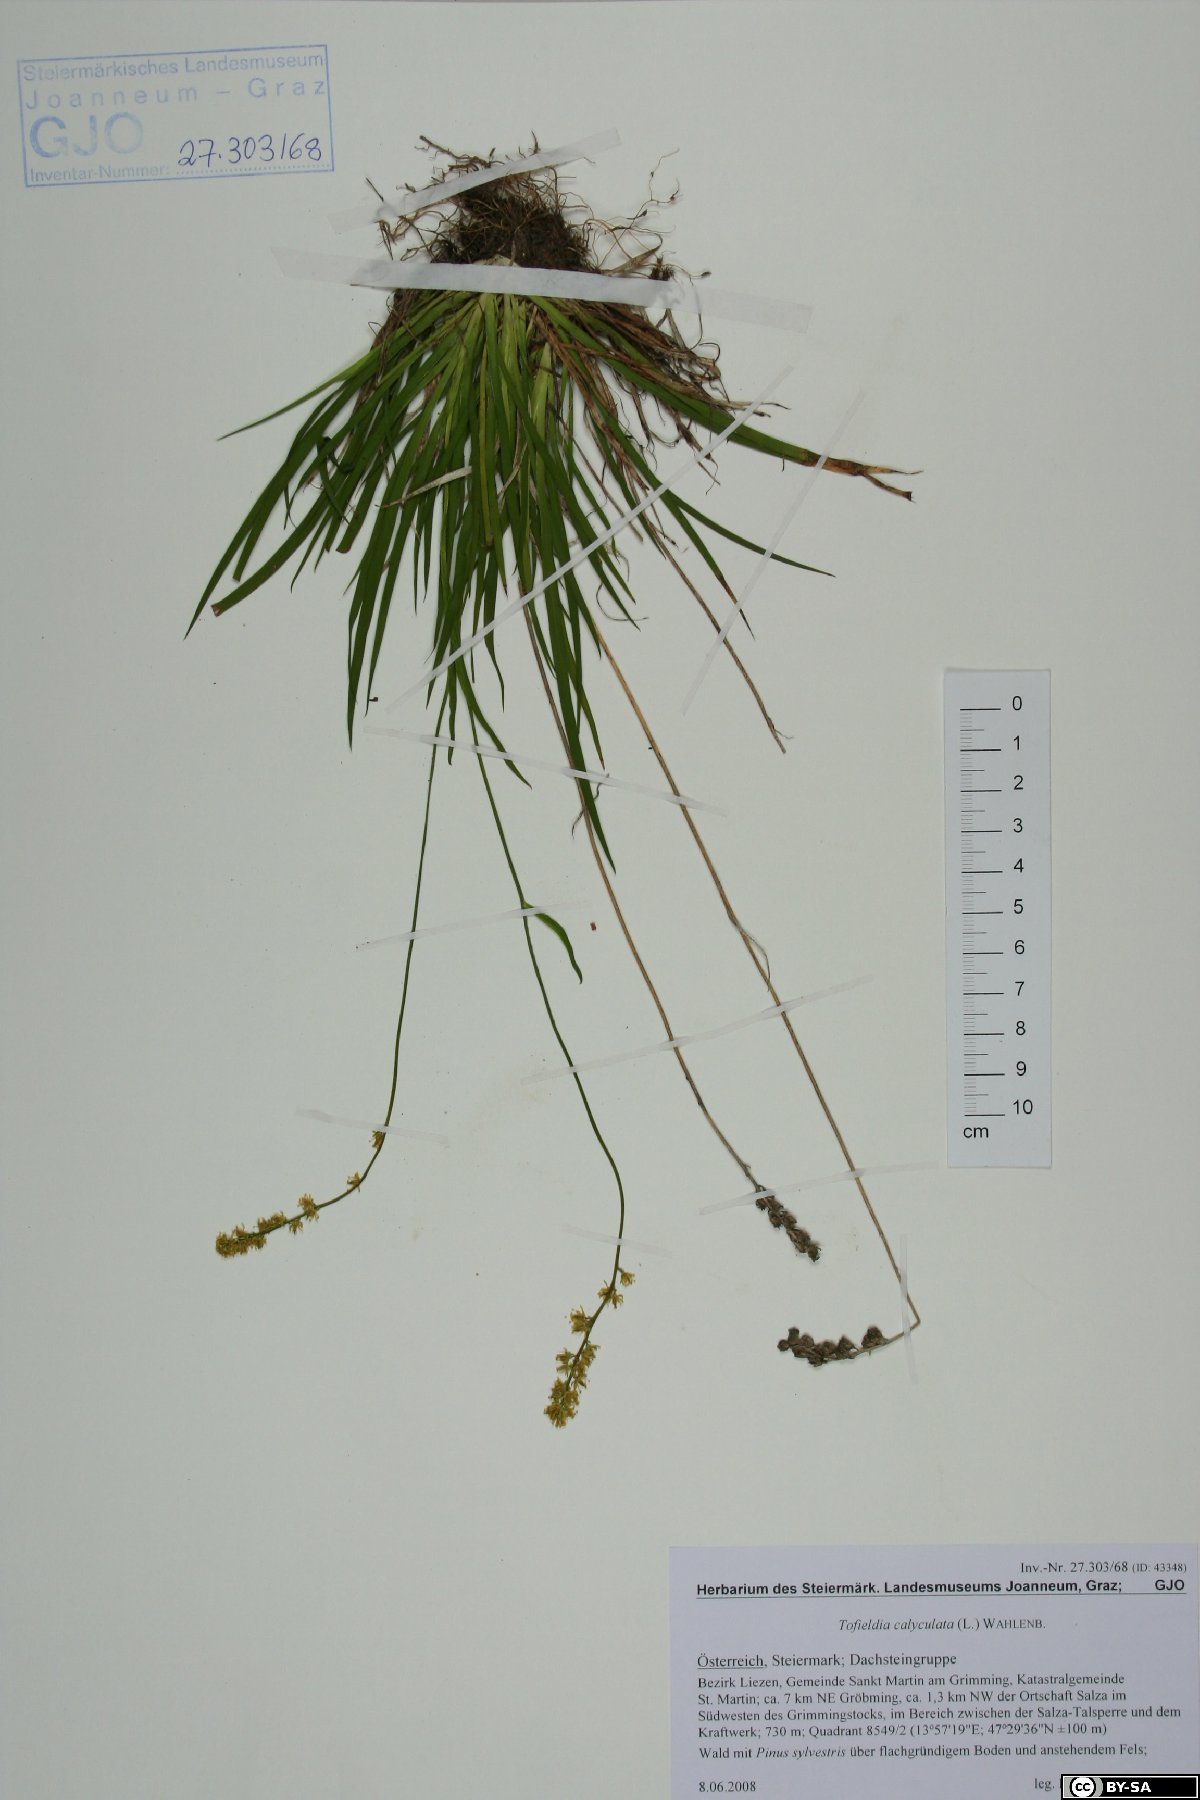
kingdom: Plantae
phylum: Tracheophyta
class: Liliopsida
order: Alismatales
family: Tofieldiaceae
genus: Tofieldia
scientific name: Tofieldia calyculata
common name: German-asphodel
